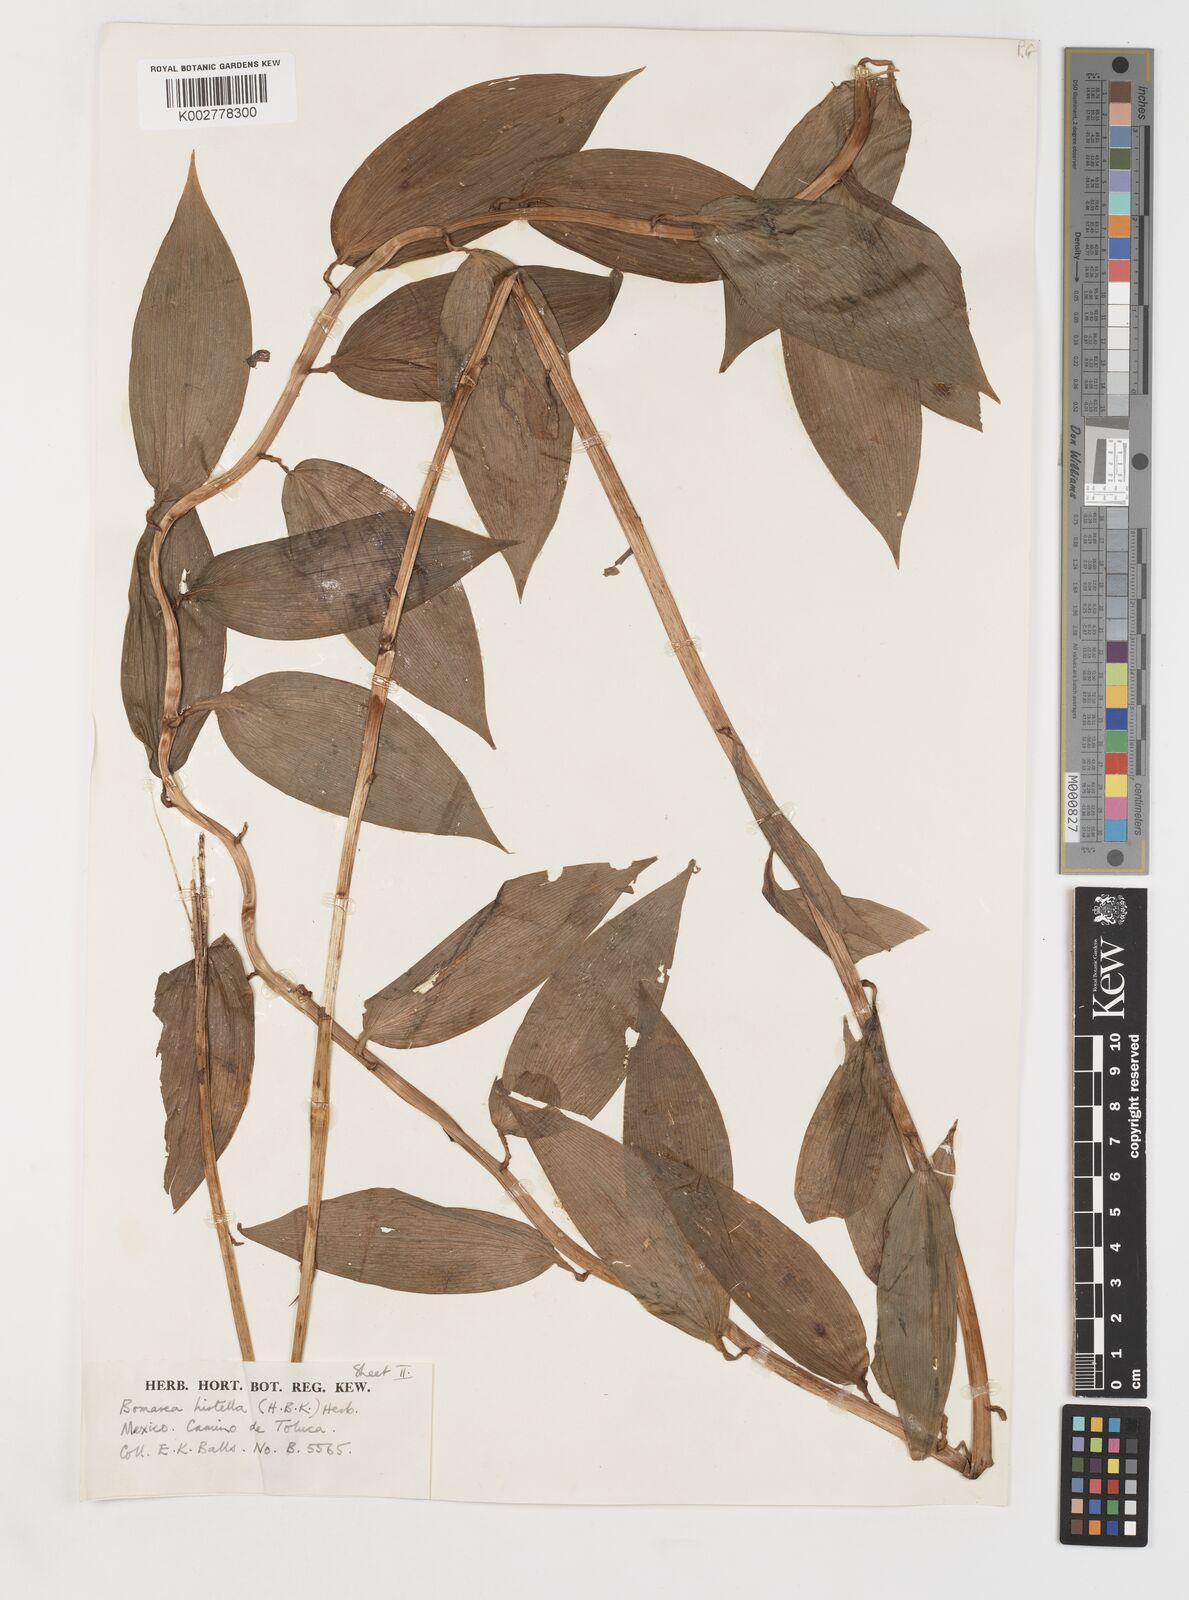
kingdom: Plantae
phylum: Tracheophyta
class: Liliopsida
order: Liliales
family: Alstroemeriaceae
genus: Bomarea
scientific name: Bomarea edulis
